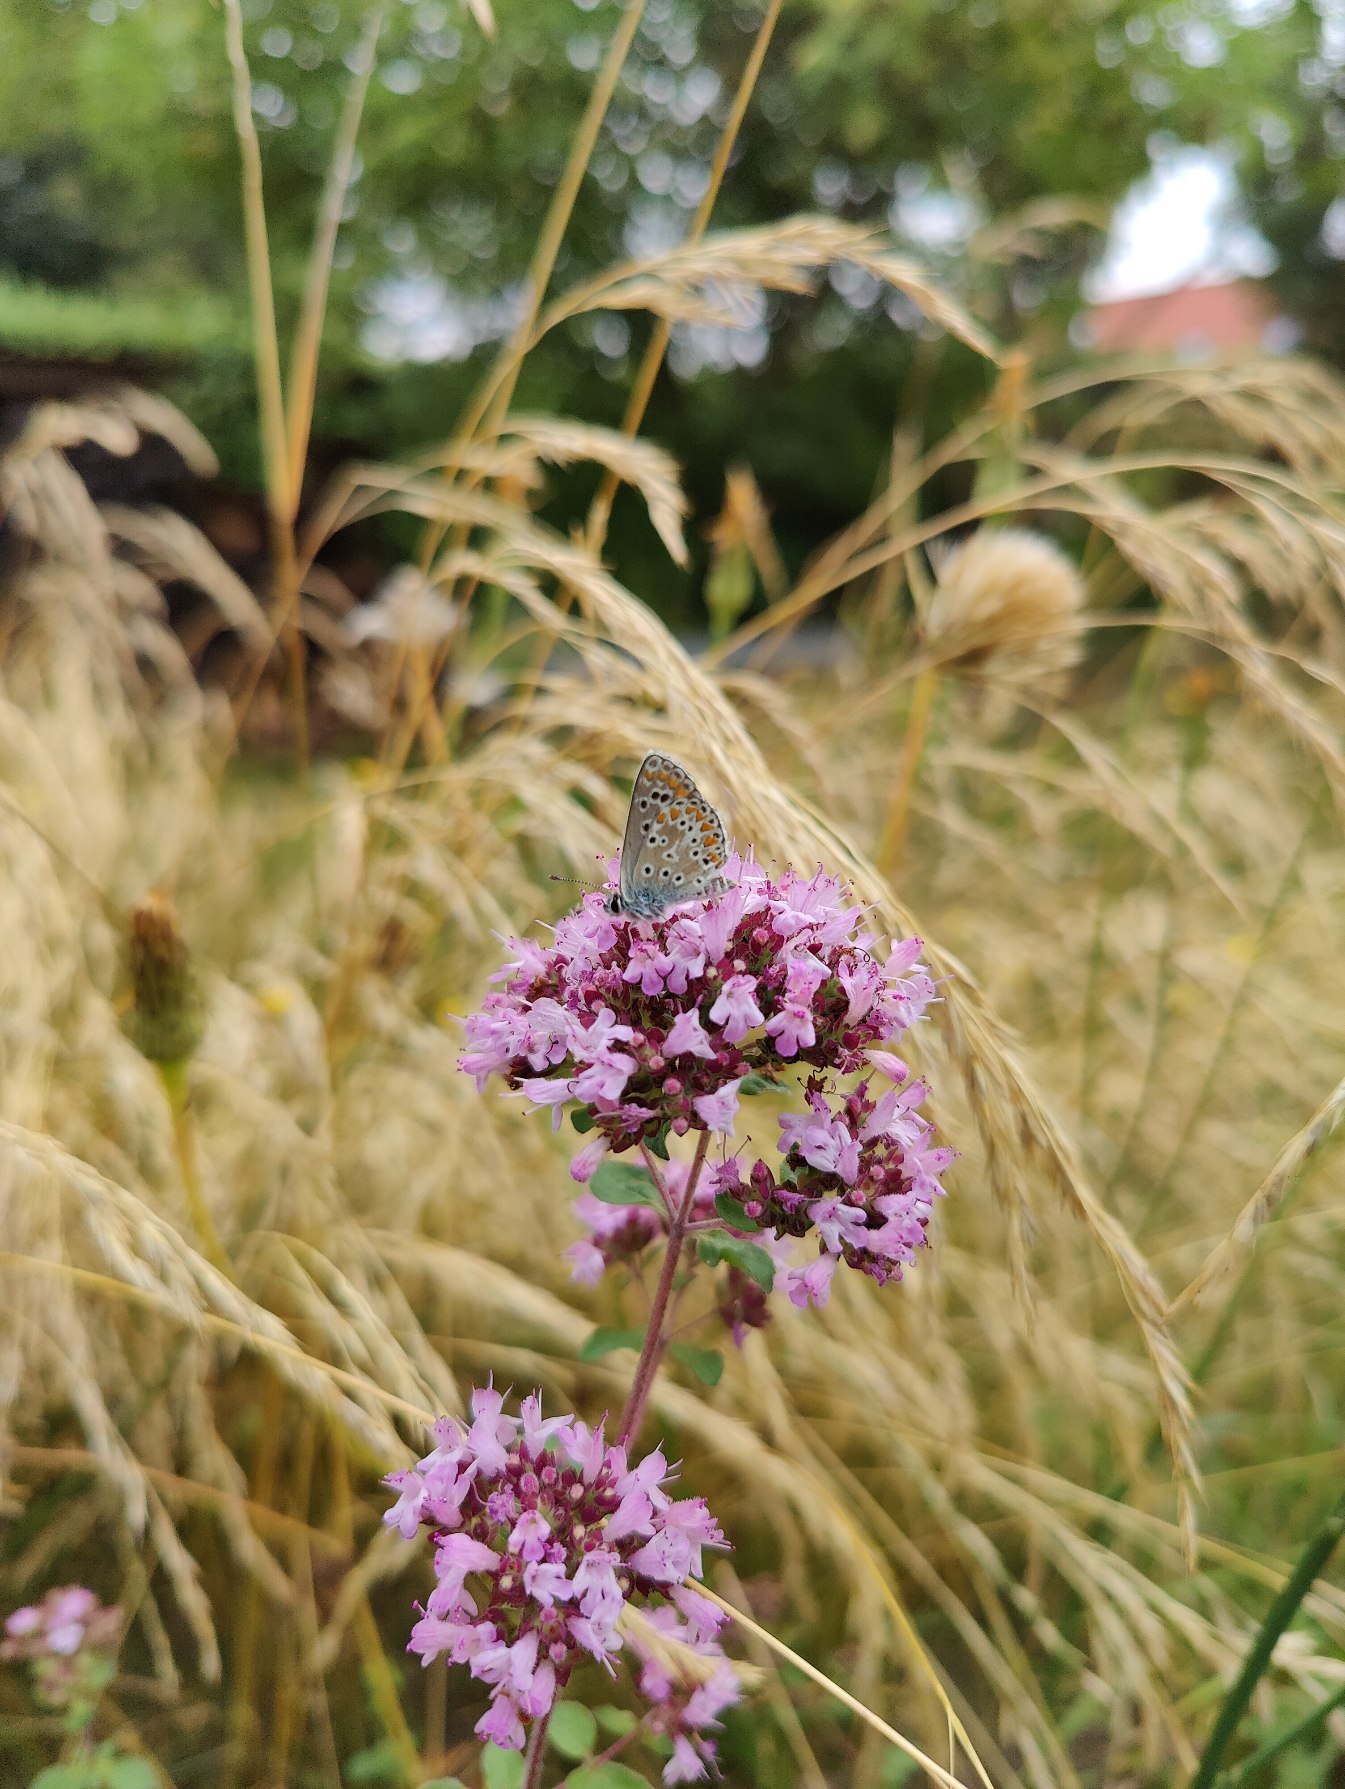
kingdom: Plantae
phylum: Tracheophyta
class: Magnoliopsida
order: Lamiales
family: Lamiaceae
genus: Origanum
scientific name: Origanum vulgare
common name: Merian
